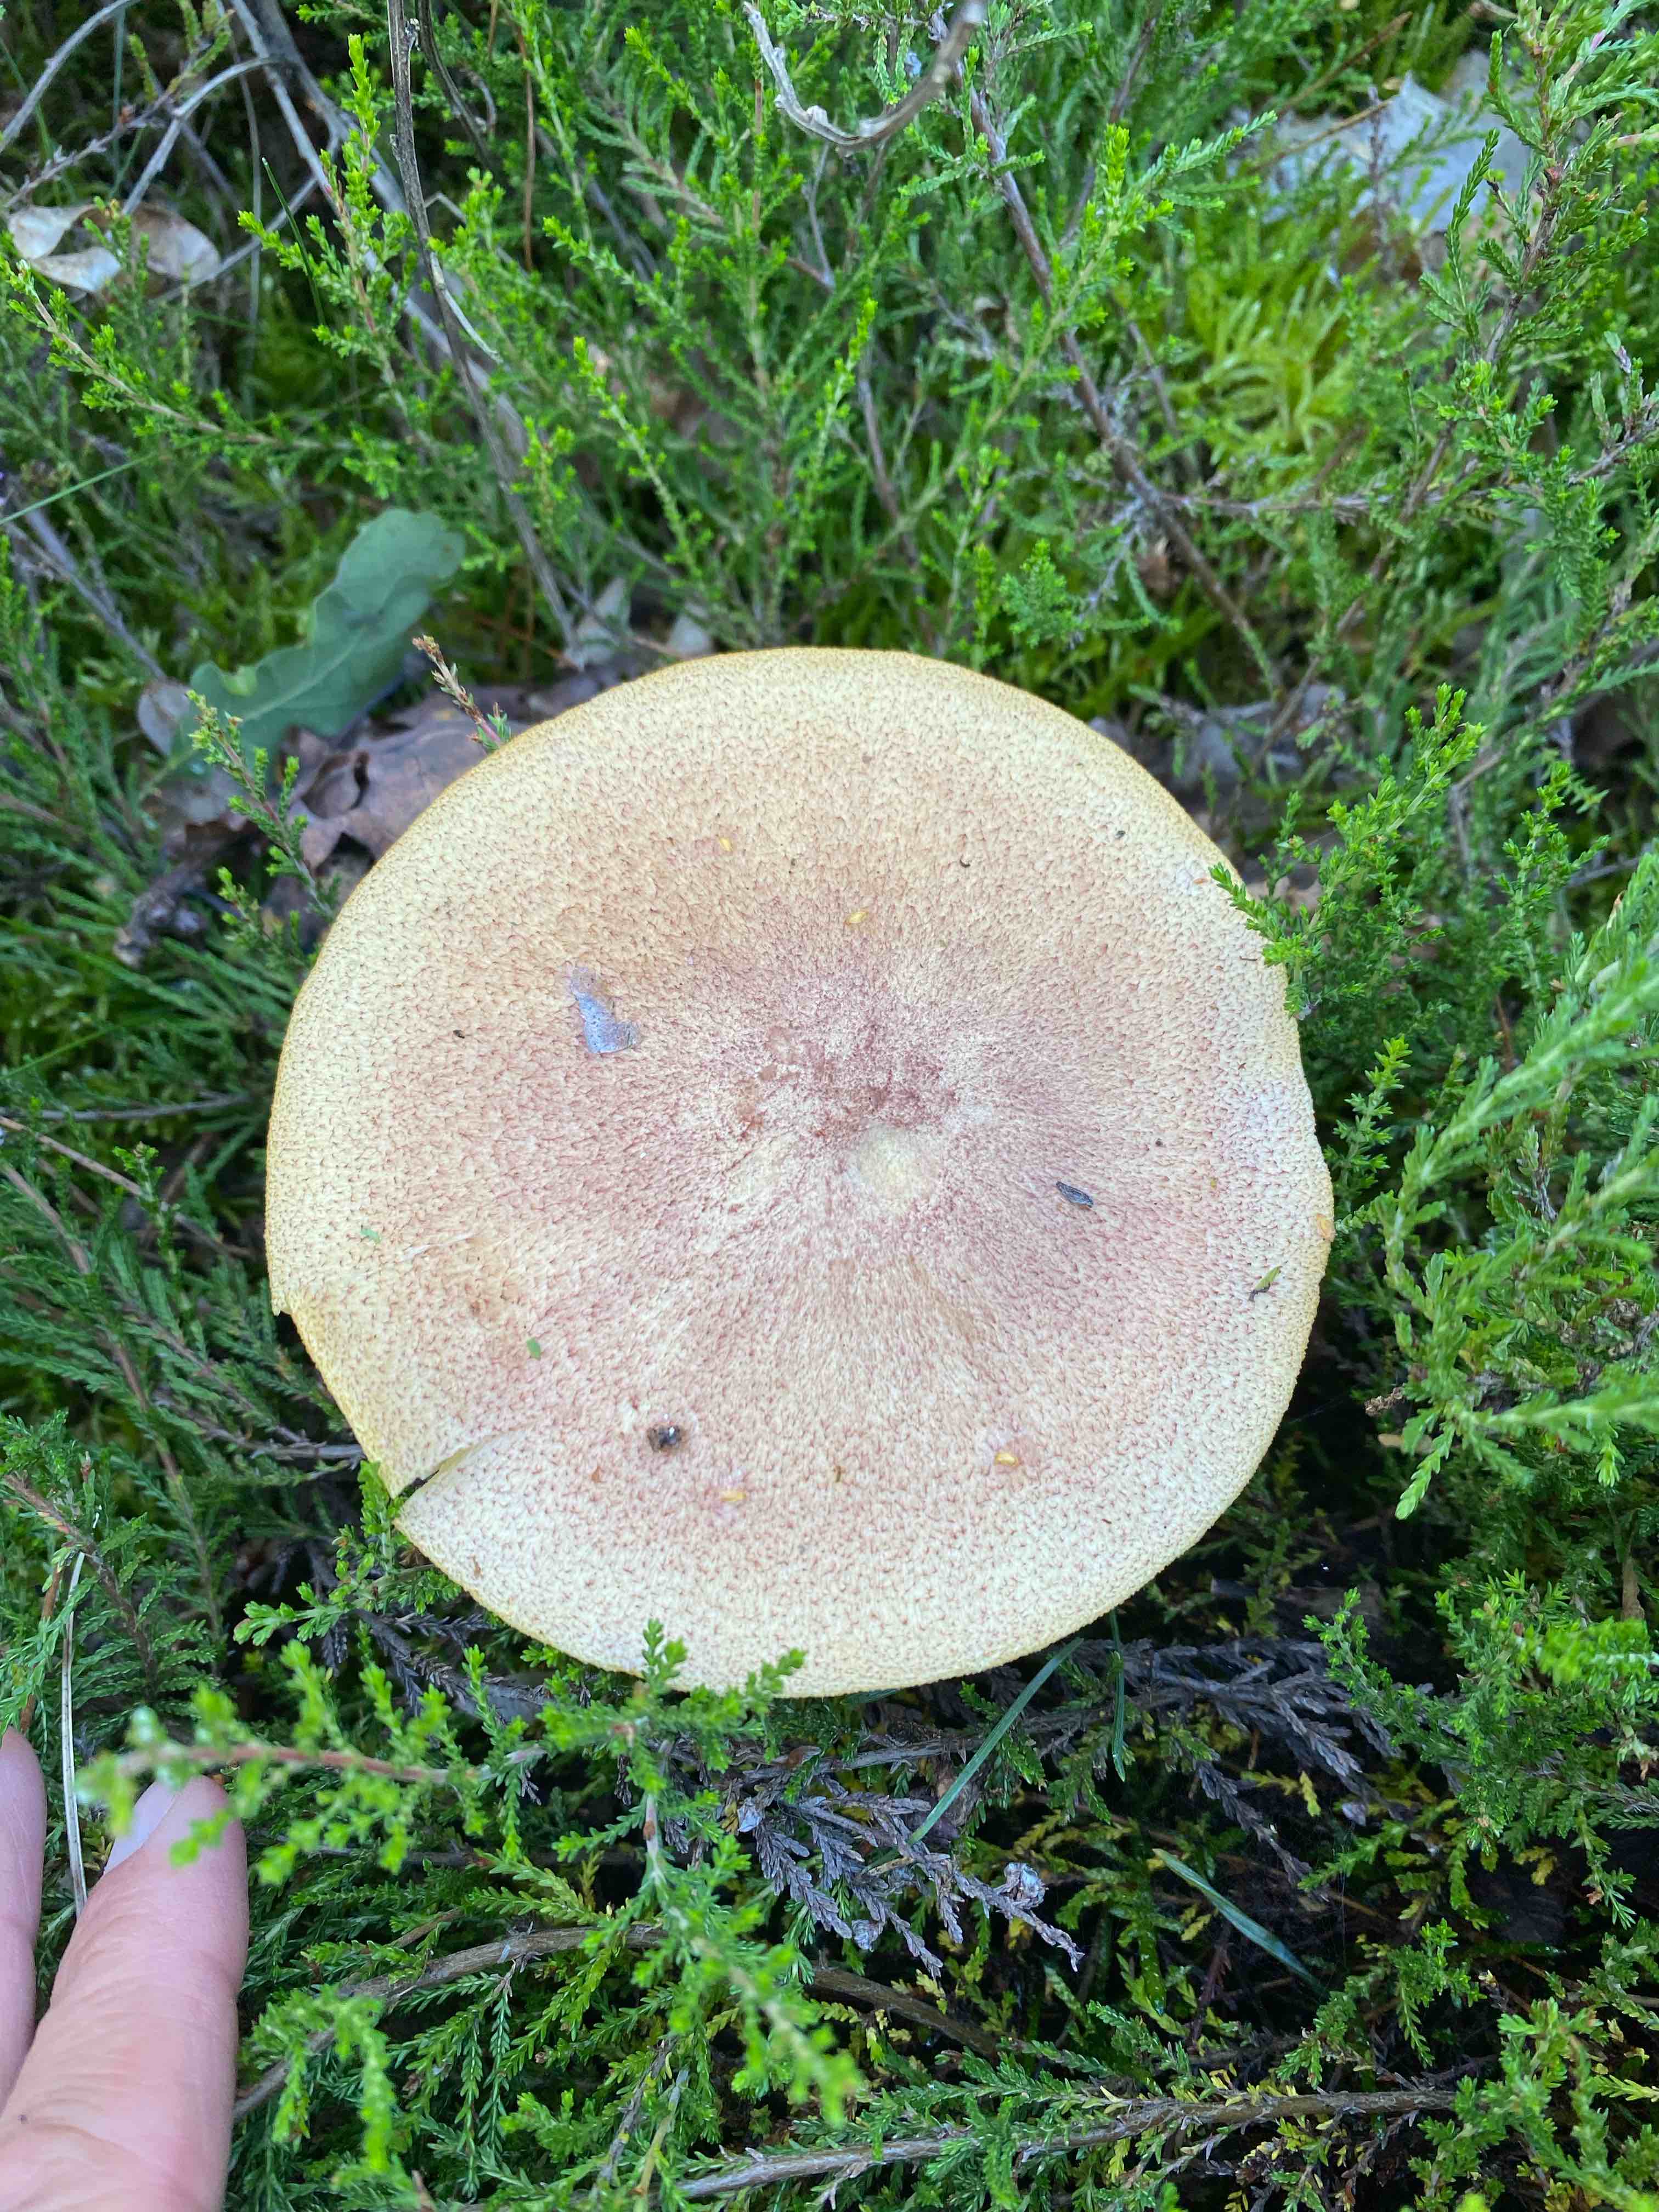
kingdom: Fungi
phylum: Basidiomycota
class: Agaricomycetes
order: Agaricales
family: Tricholomataceae
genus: Tricholomopsis
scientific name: Tricholomopsis rutilans
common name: purpur-væbnerhat
